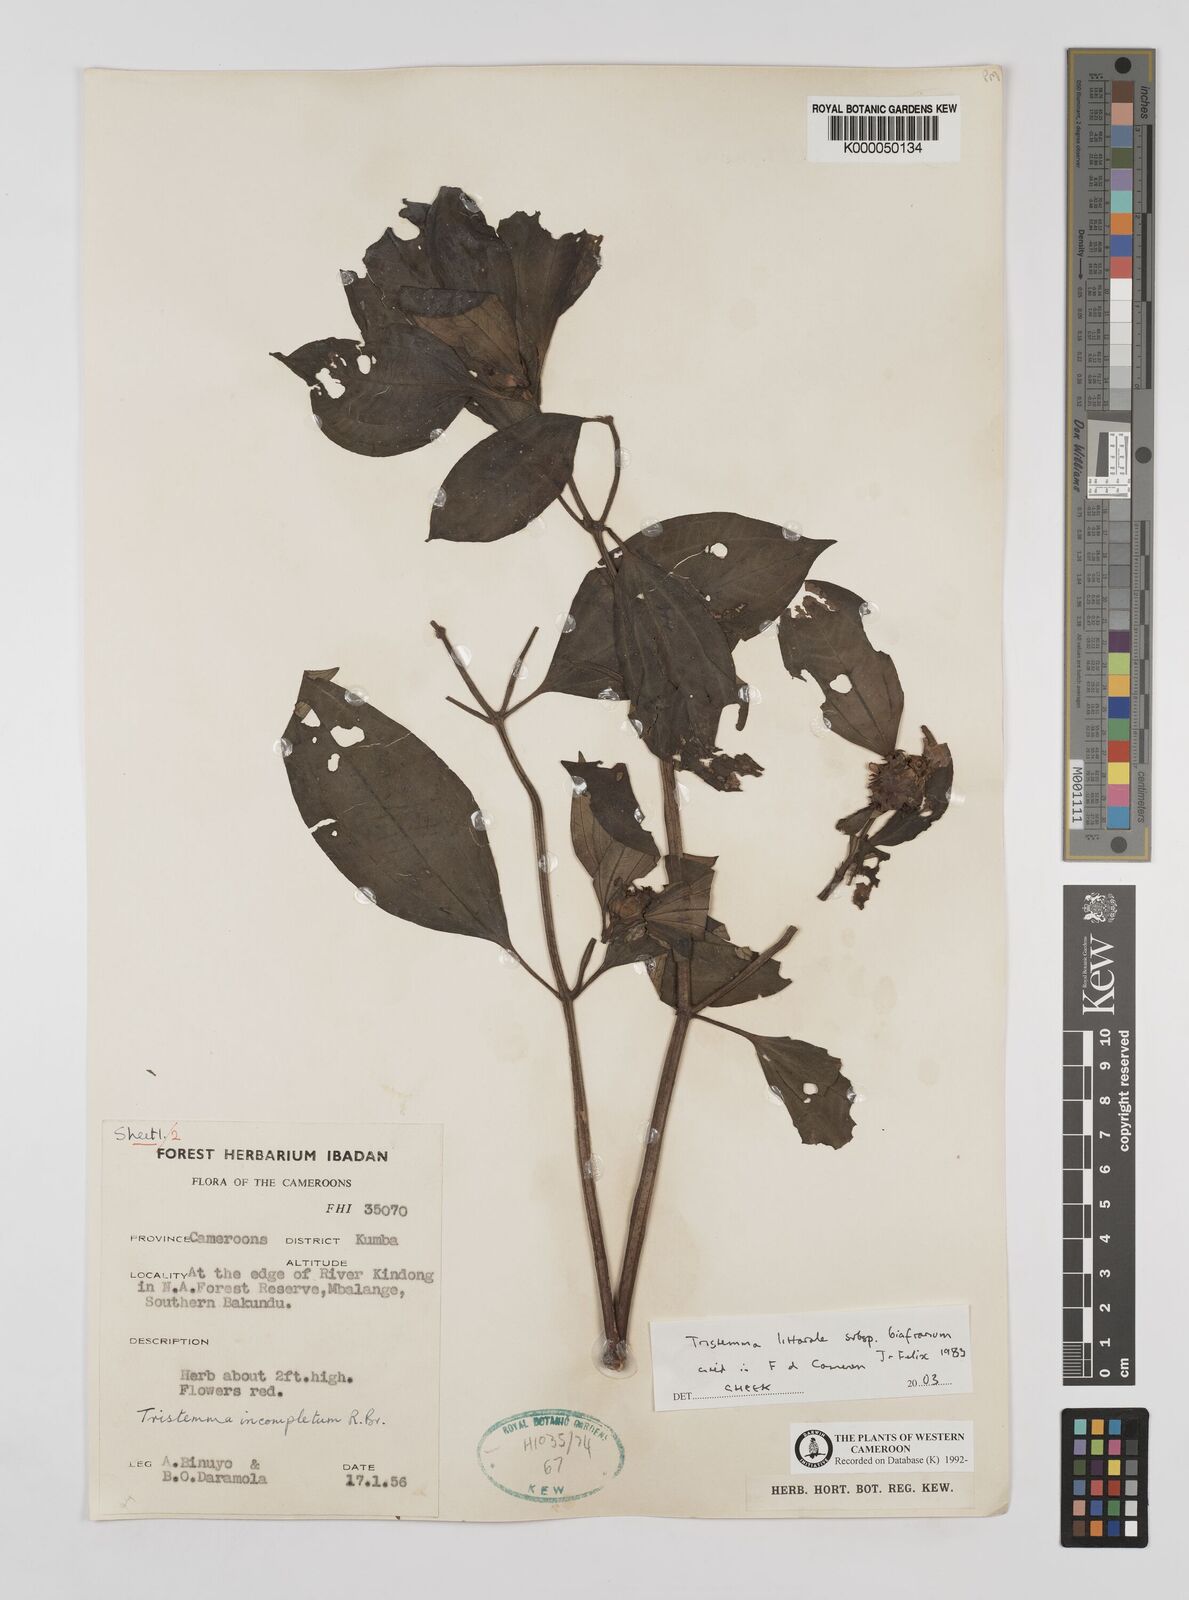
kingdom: Plantae
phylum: Tracheophyta
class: Magnoliopsida
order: Myrtales
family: Melastomataceae
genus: Tristemma
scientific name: Tristemma littorale
